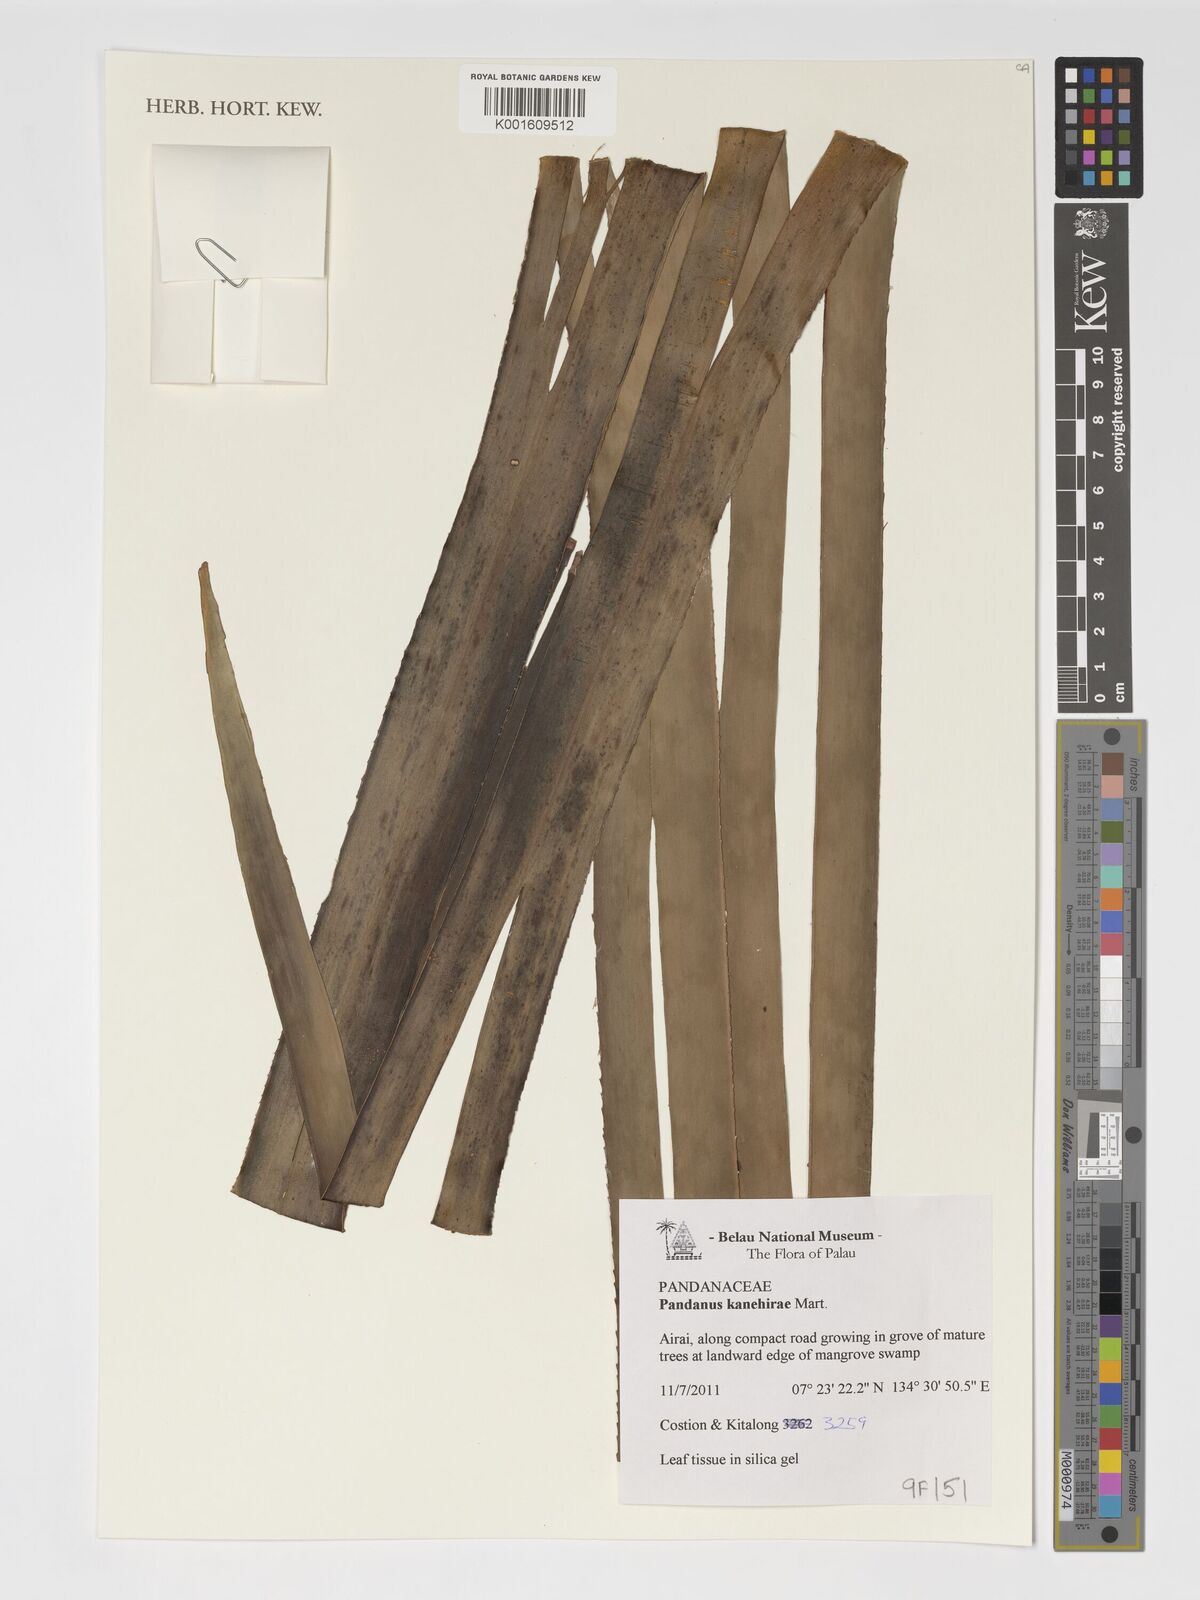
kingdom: Plantae
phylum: Tracheophyta
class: Liliopsida
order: Pandanales
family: Pandanaceae
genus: Pandanus
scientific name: Pandanus kanehirae
